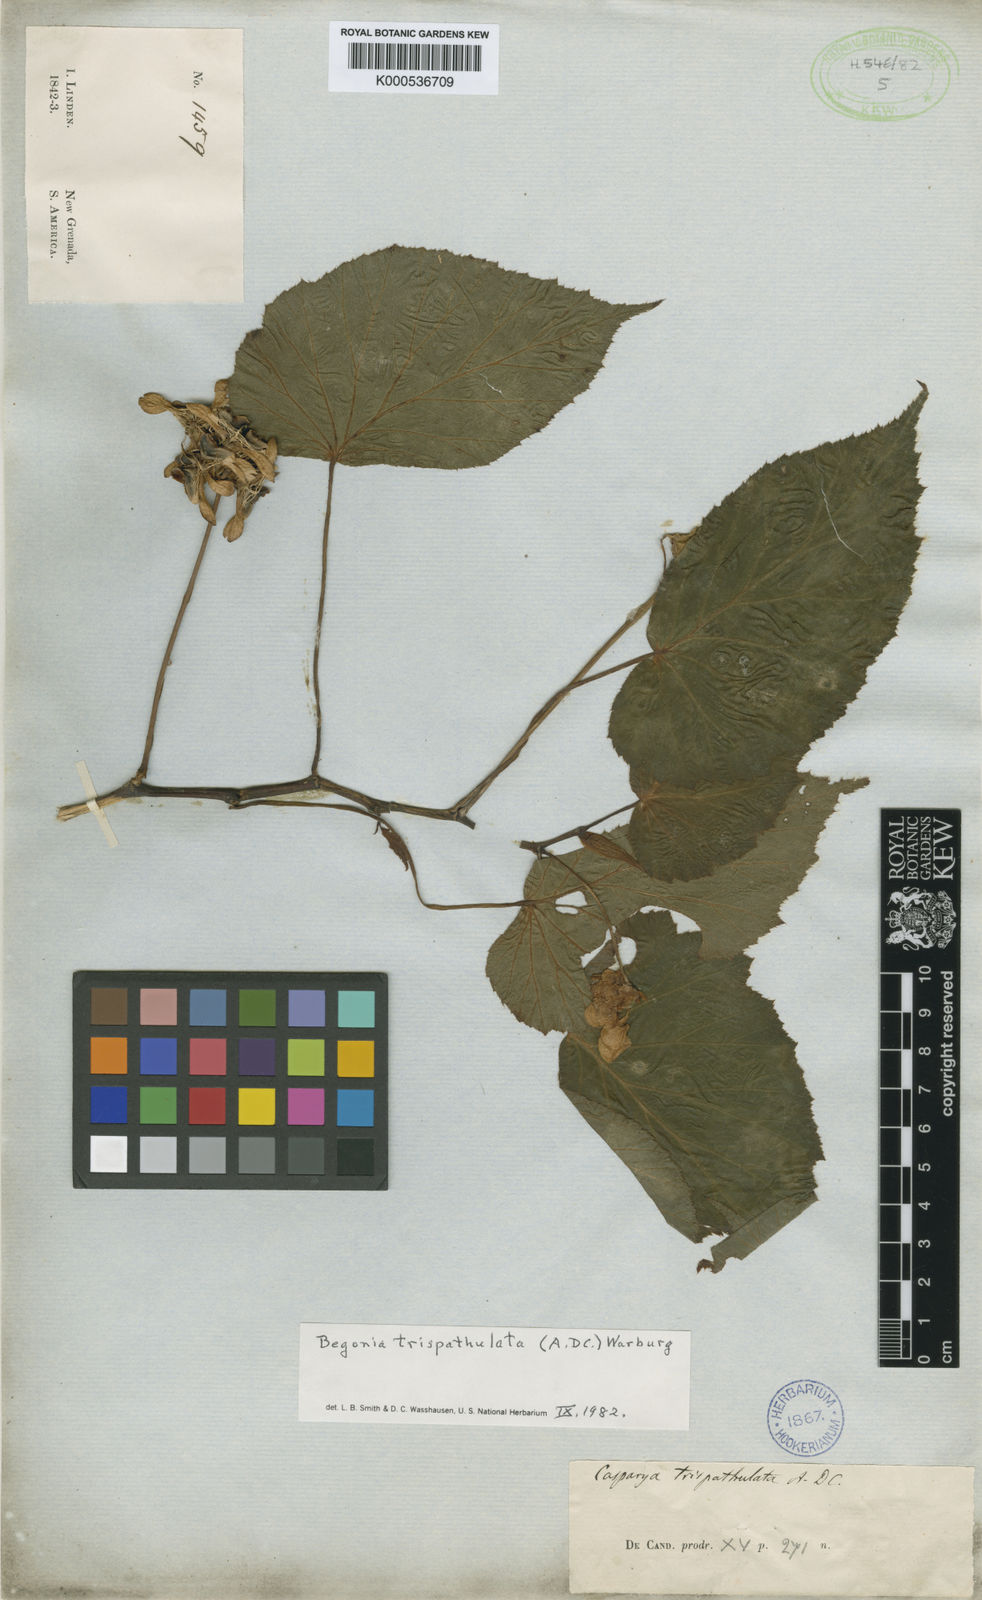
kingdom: Plantae
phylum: Tracheophyta
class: Magnoliopsida
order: Cucurbitales
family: Begoniaceae
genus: Begonia
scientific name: Begonia trispathulata
